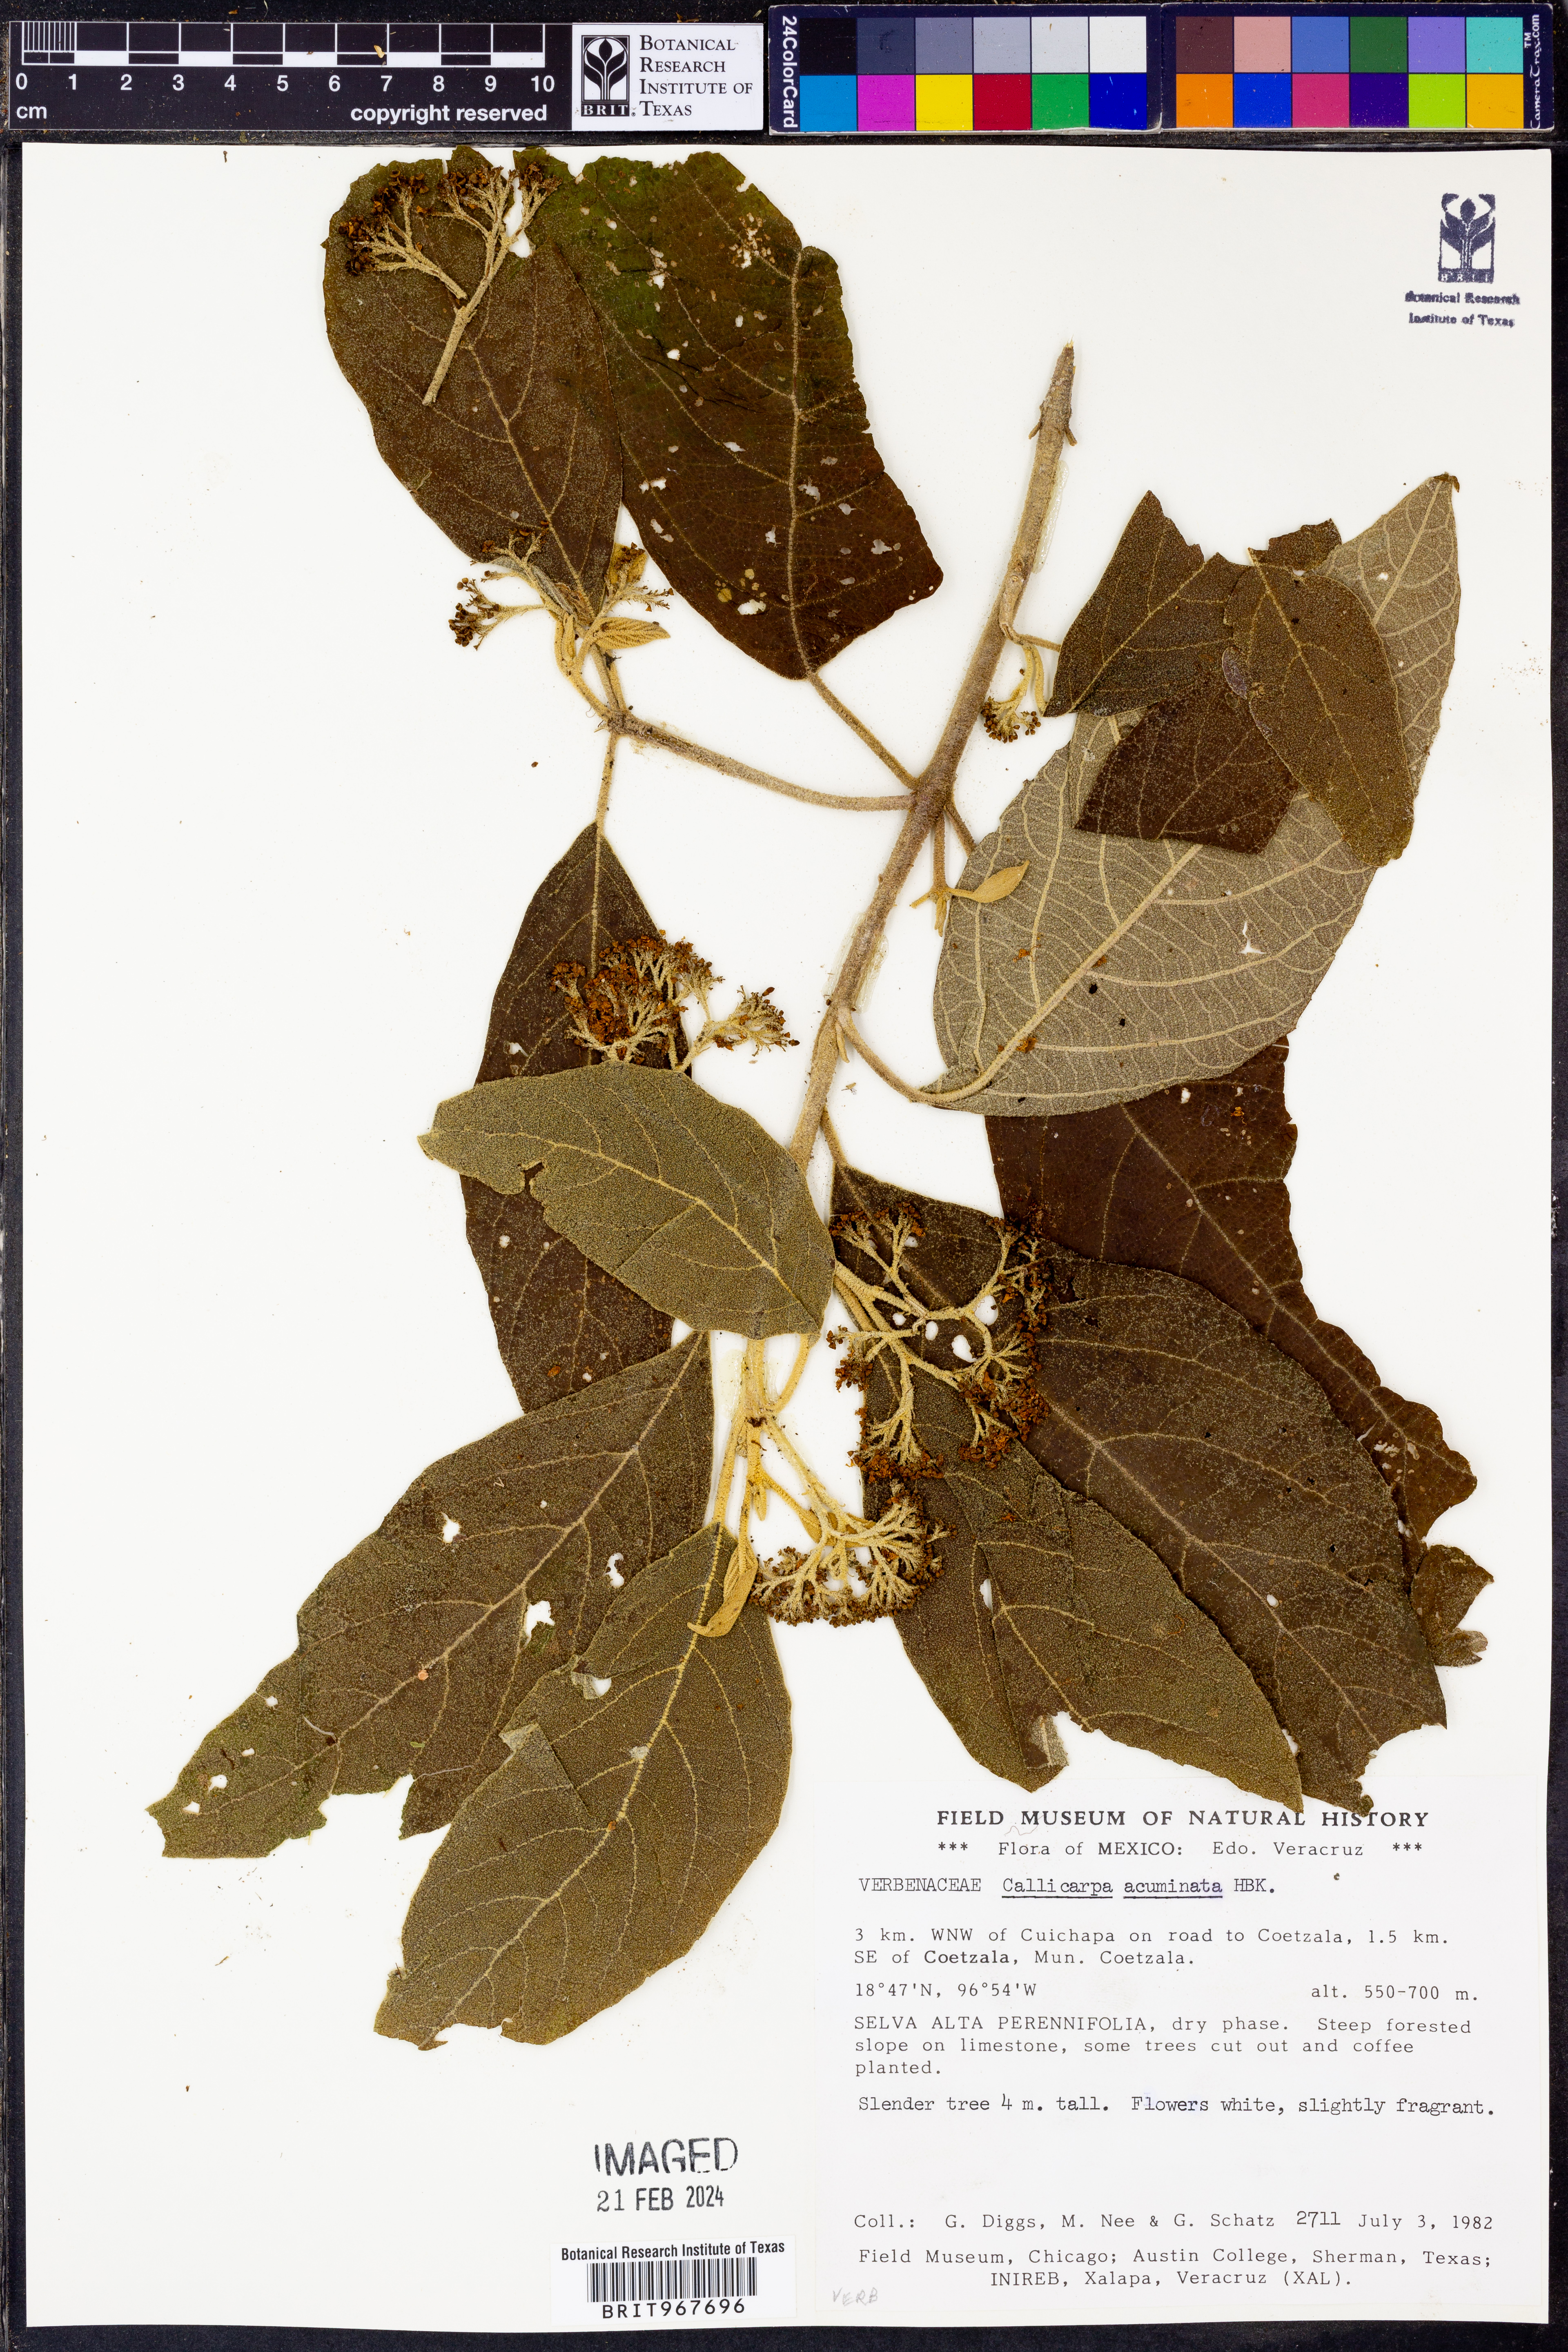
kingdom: Plantae
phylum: Tracheophyta
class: Magnoliopsida
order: Lamiales
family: Lamiaceae
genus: Callicarpa
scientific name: Callicarpa
